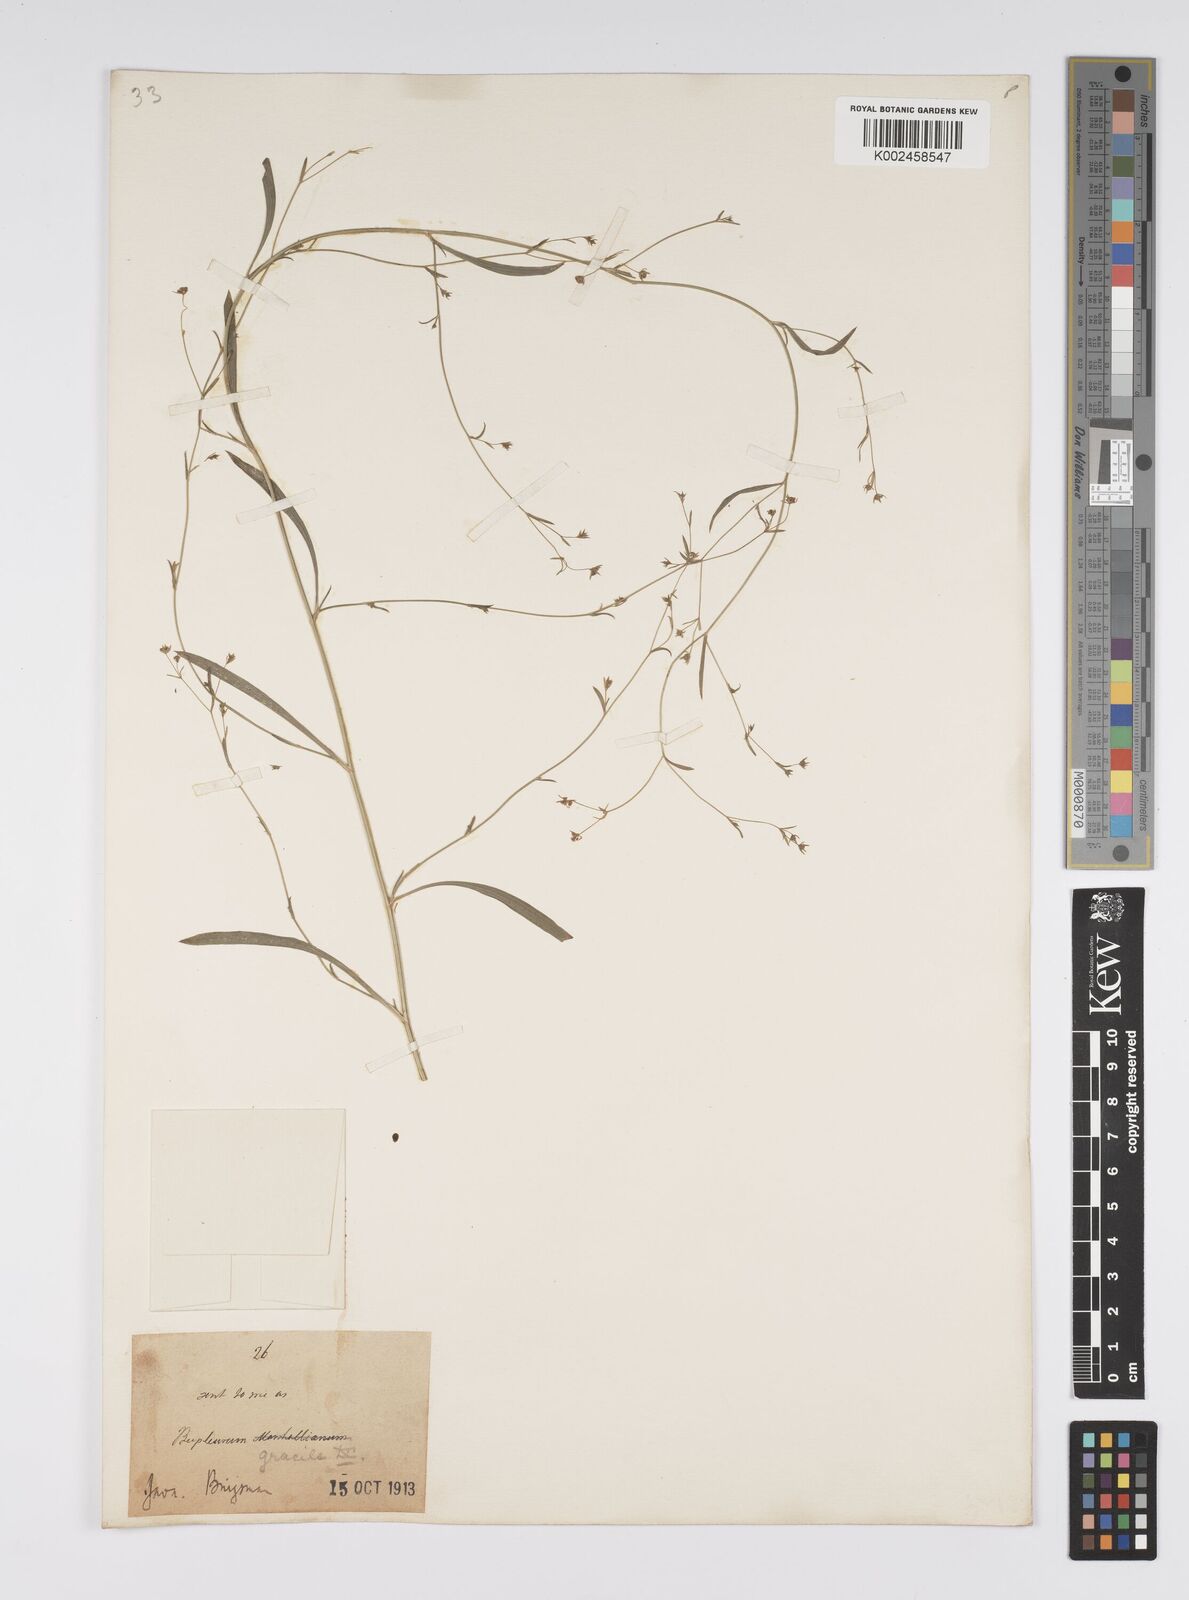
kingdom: Plantae
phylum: Tracheophyta
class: Magnoliopsida
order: Apiales
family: Apiaceae
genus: Bupleurum
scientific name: Bupleurum tenuissimum
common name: Slender hare's-ear
